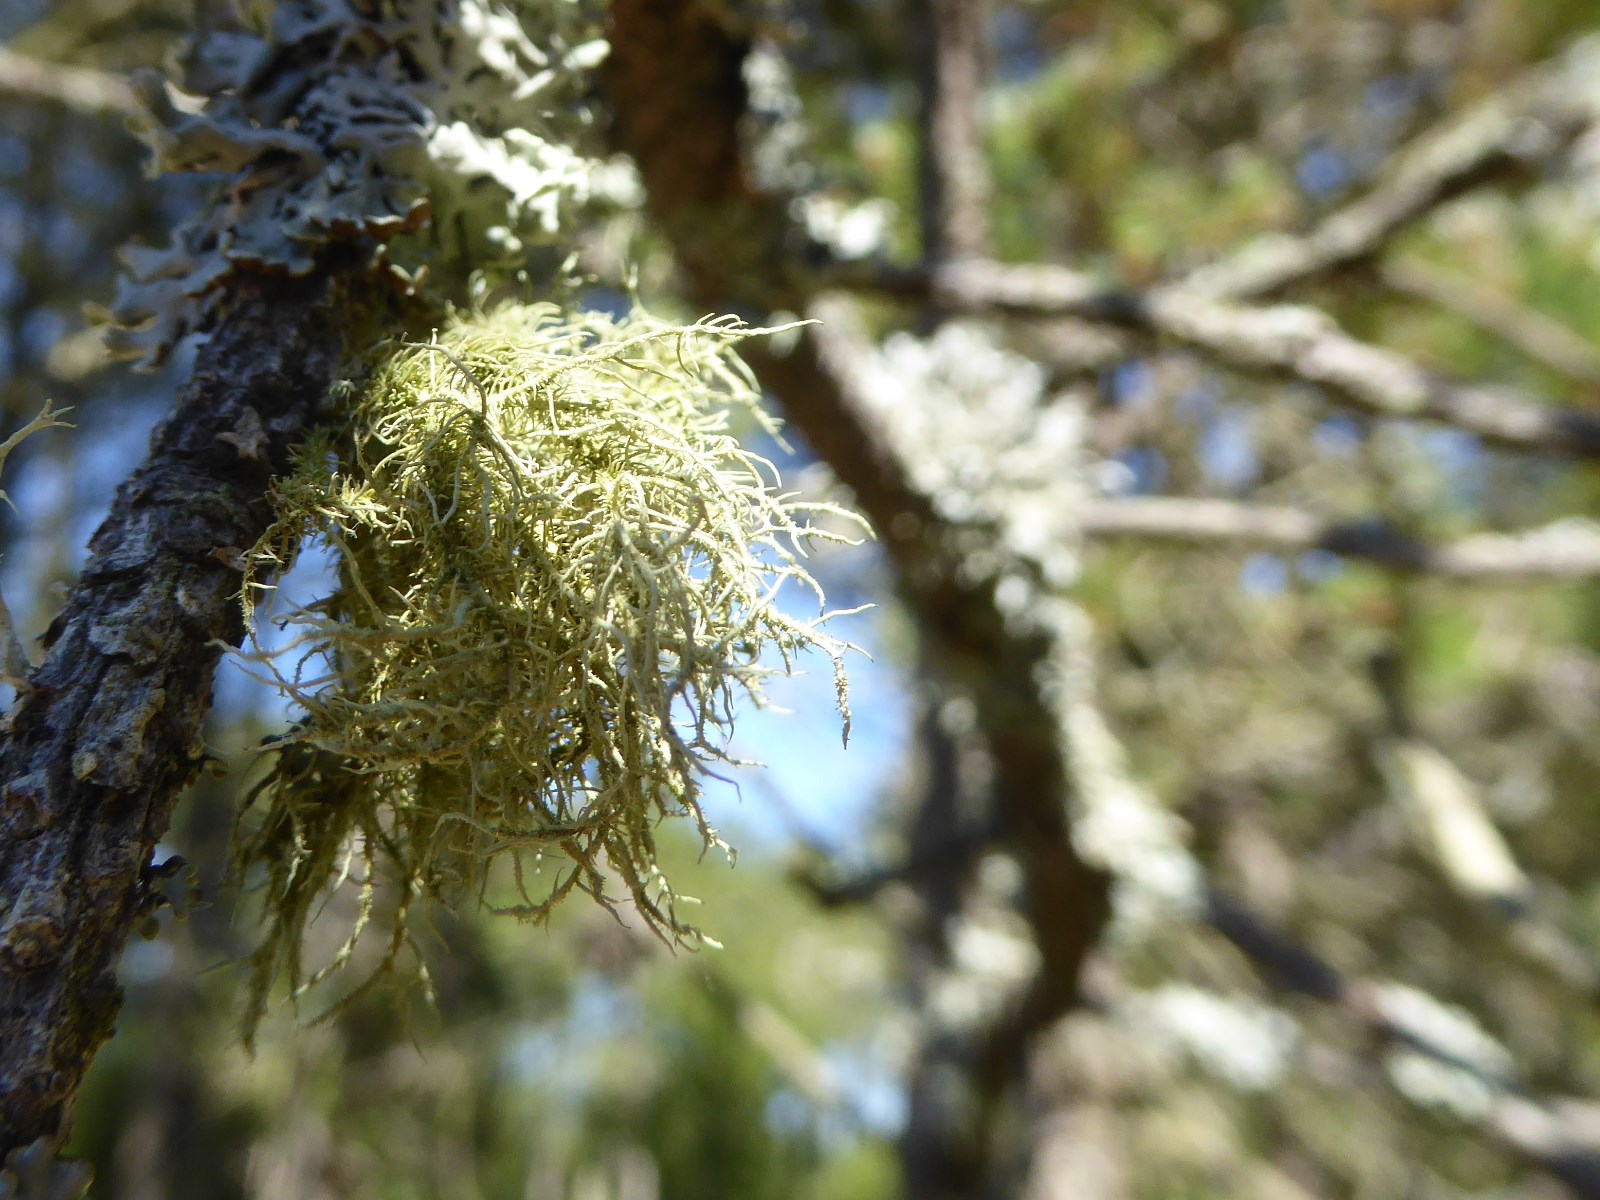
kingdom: Fungi
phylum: Ascomycota
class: Lecanoromycetes
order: Lecanorales
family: Parmeliaceae
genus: Usnea
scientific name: Usnea hirta
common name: liden skæglav
